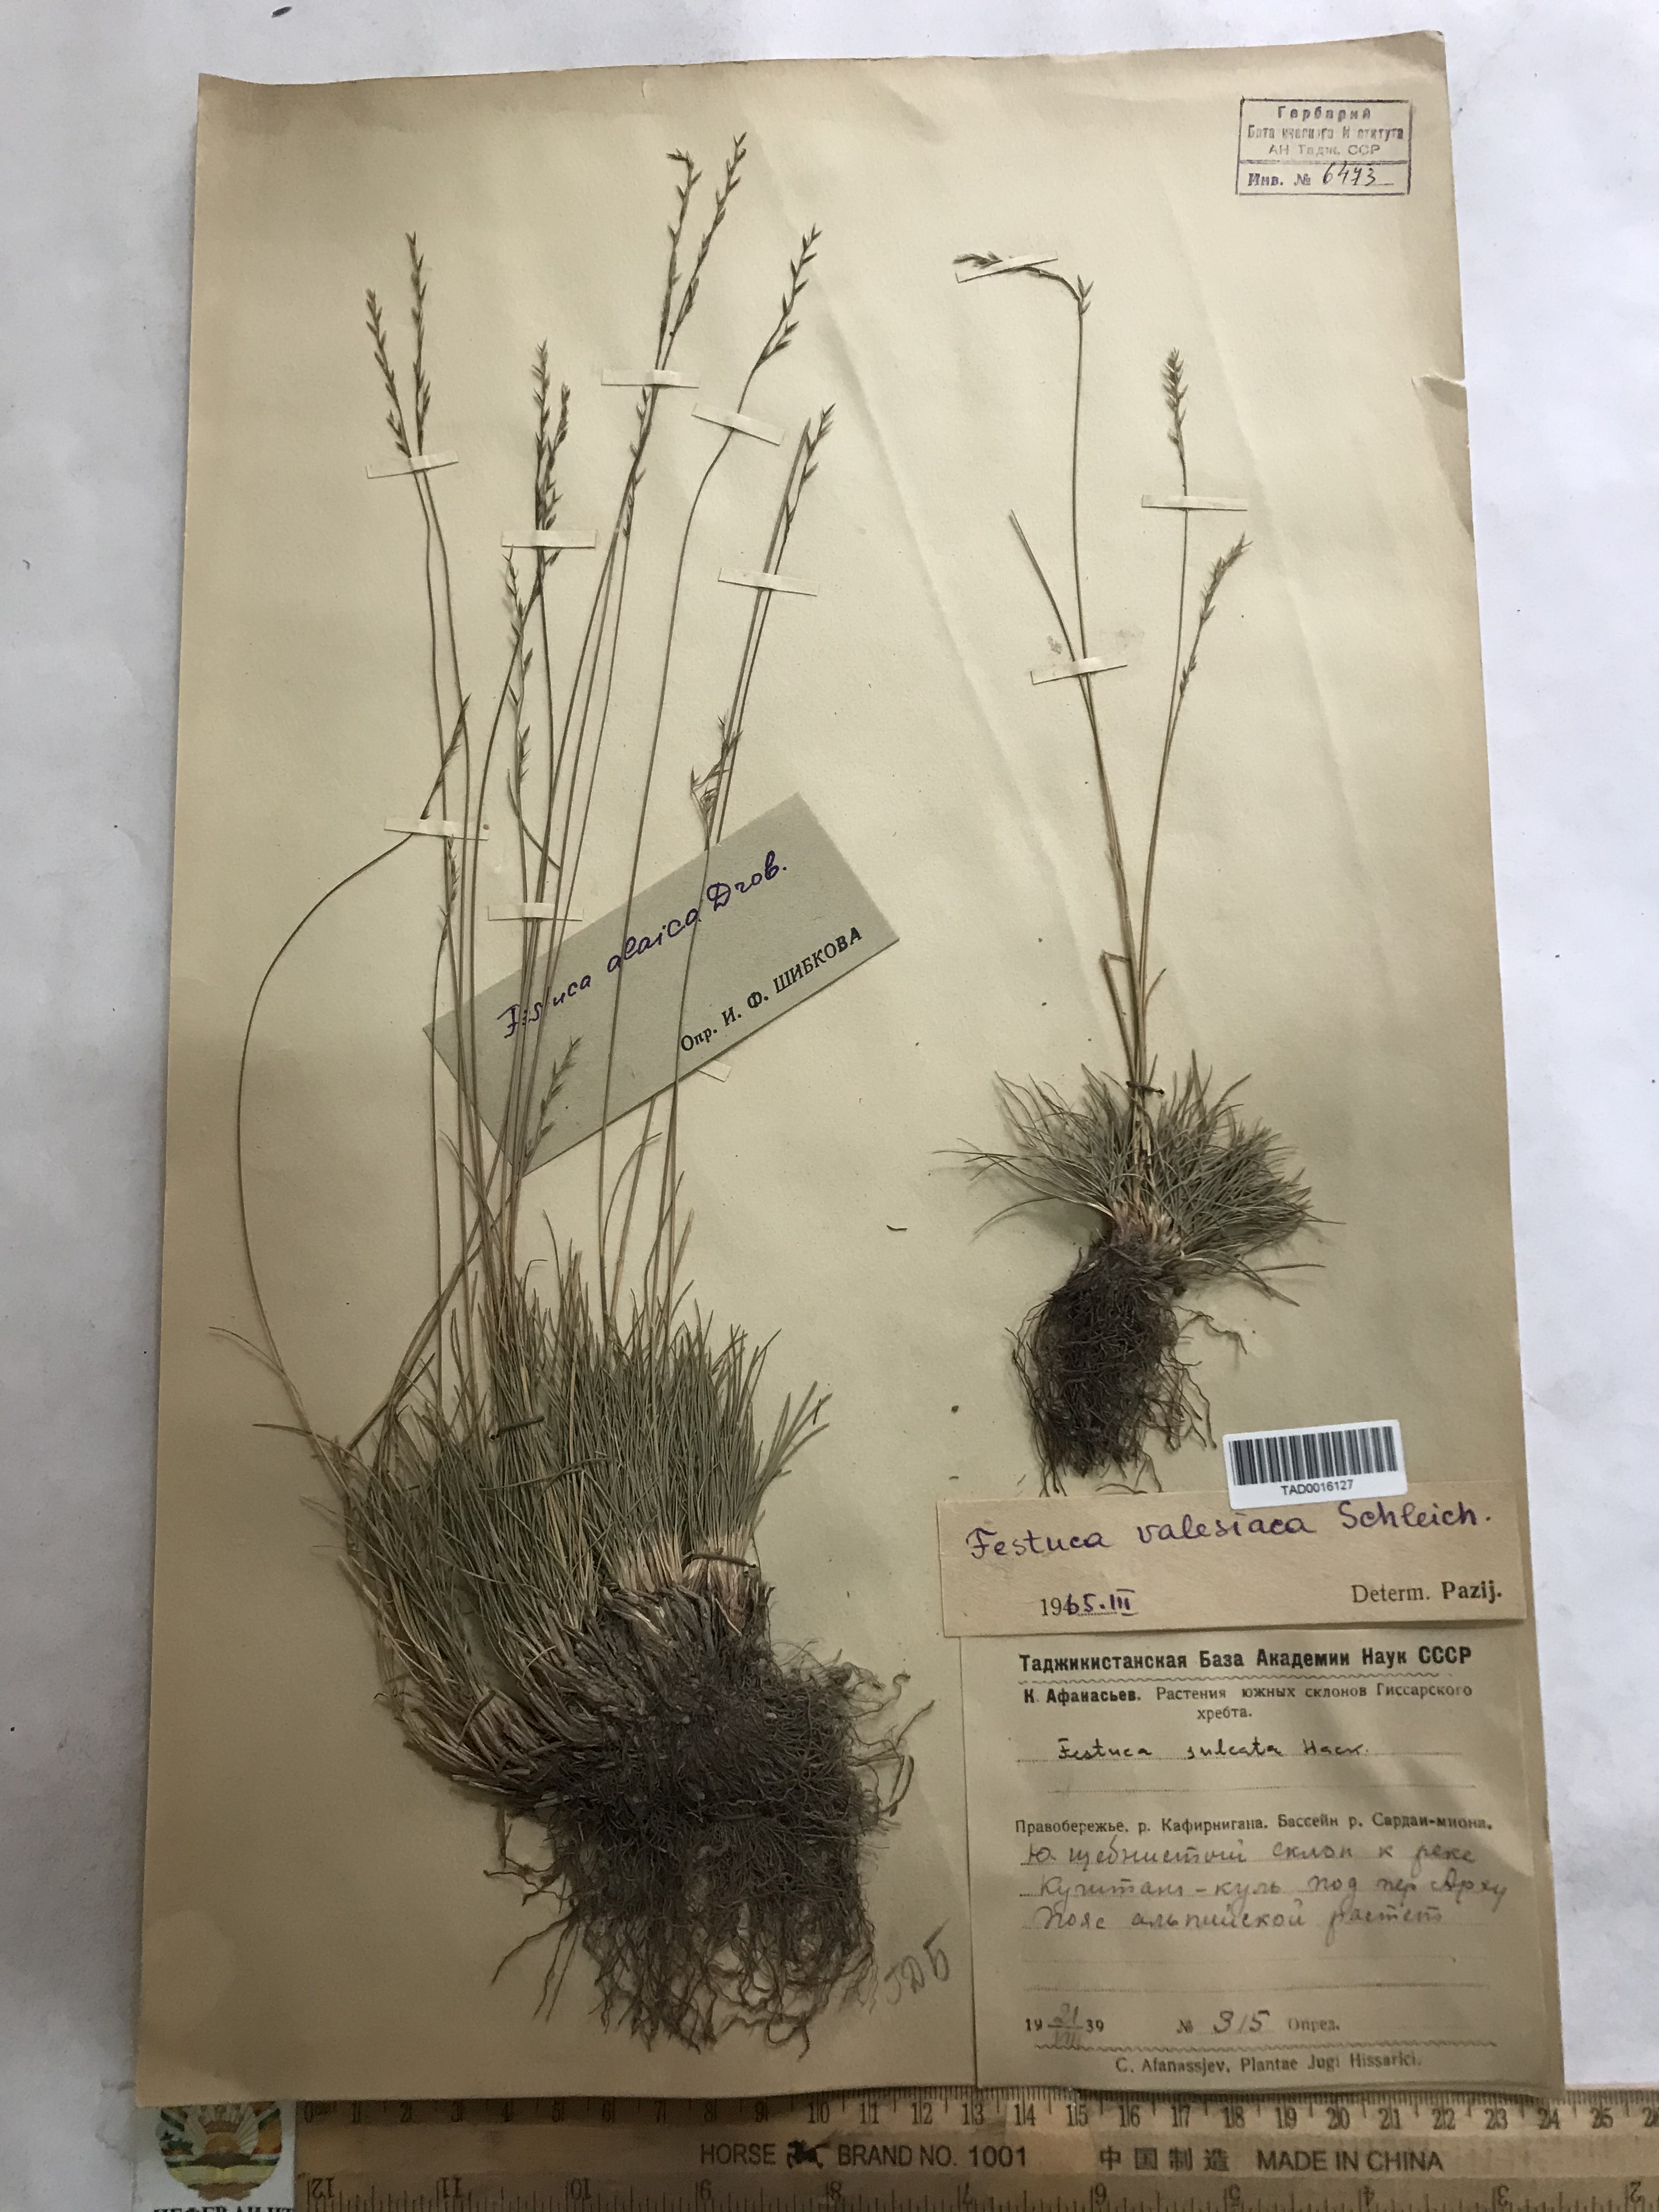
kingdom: Plantae
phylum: Tracheophyta
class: Liliopsida
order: Poales
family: Poaceae
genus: Festuca
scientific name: Festuca valesiaca
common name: Volga fescue
